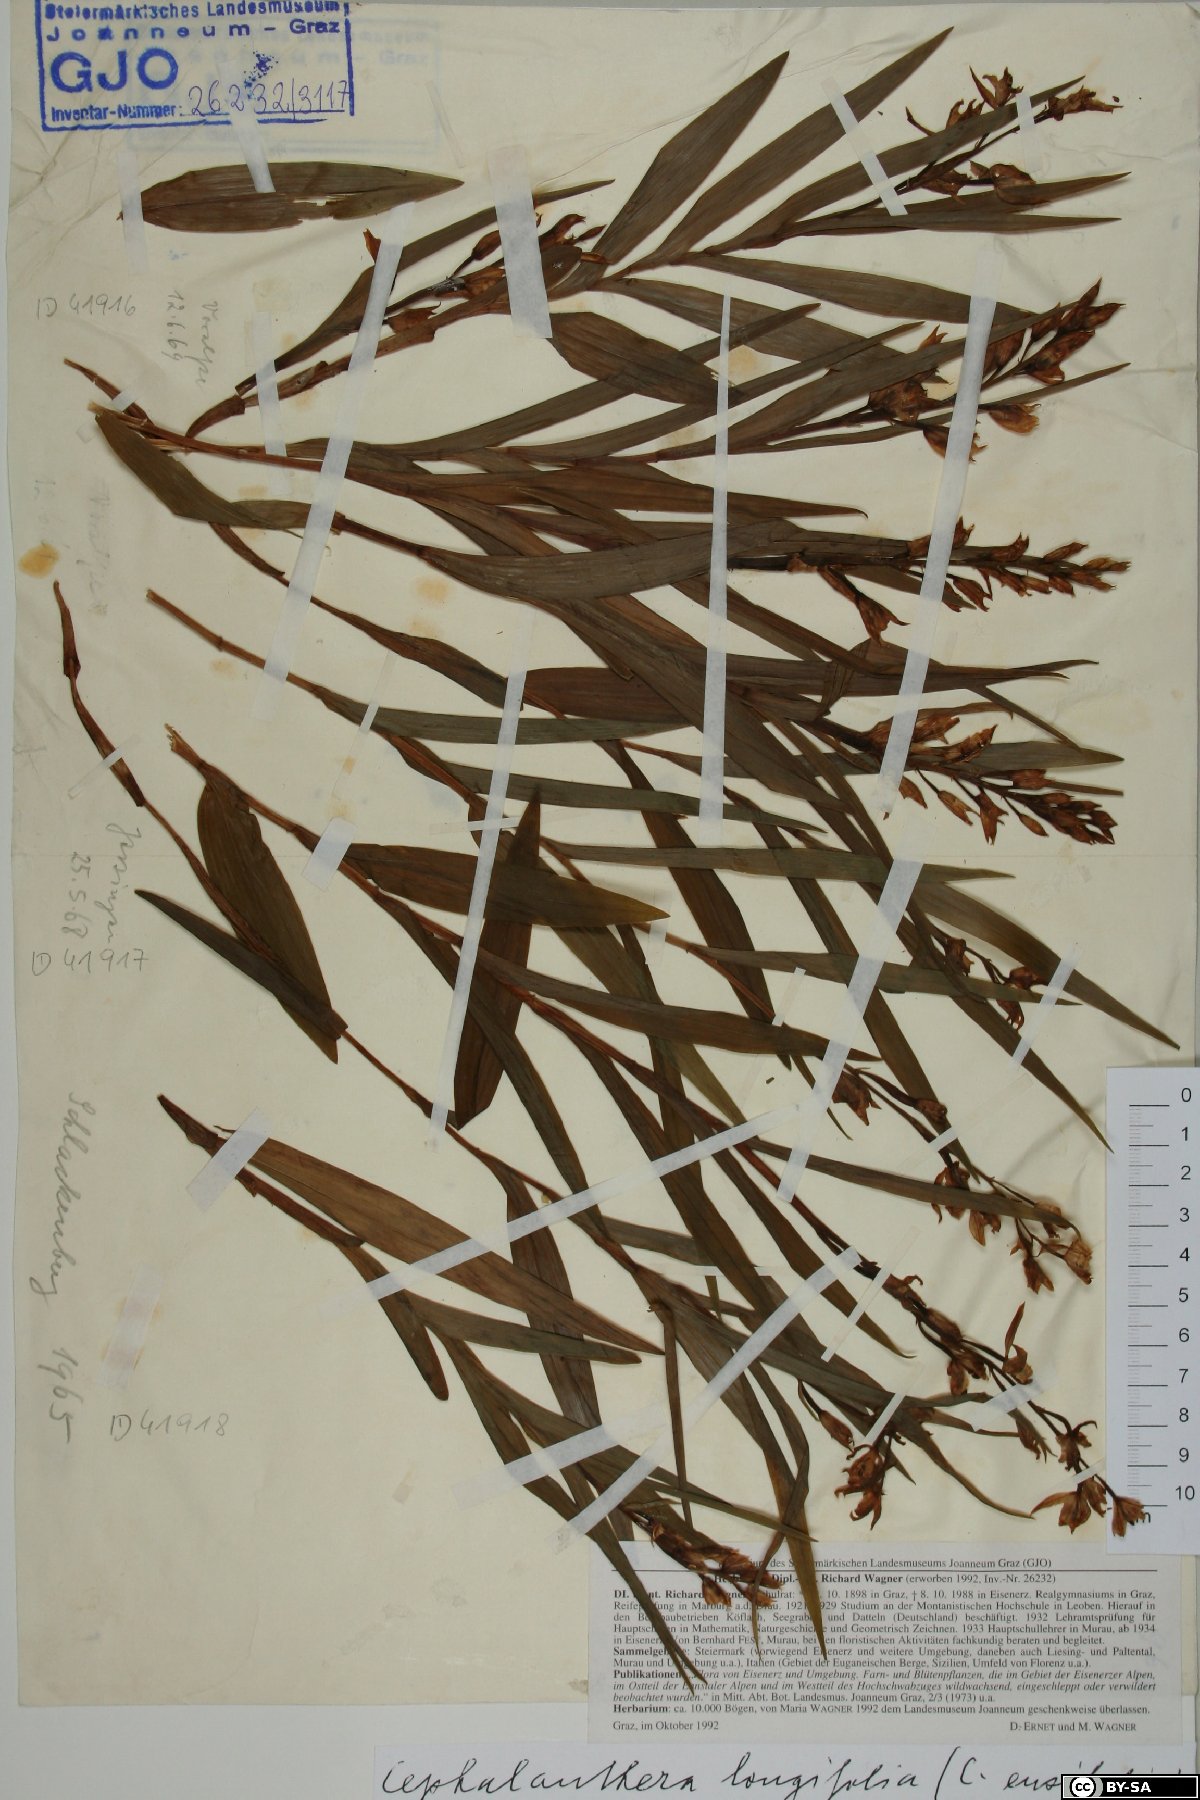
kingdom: Plantae
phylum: Tracheophyta
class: Liliopsida
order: Asparagales
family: Orchidaceae
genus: Cephalanthera
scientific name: Cephalanthera longifolia
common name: Narrow-leaved helleborine
